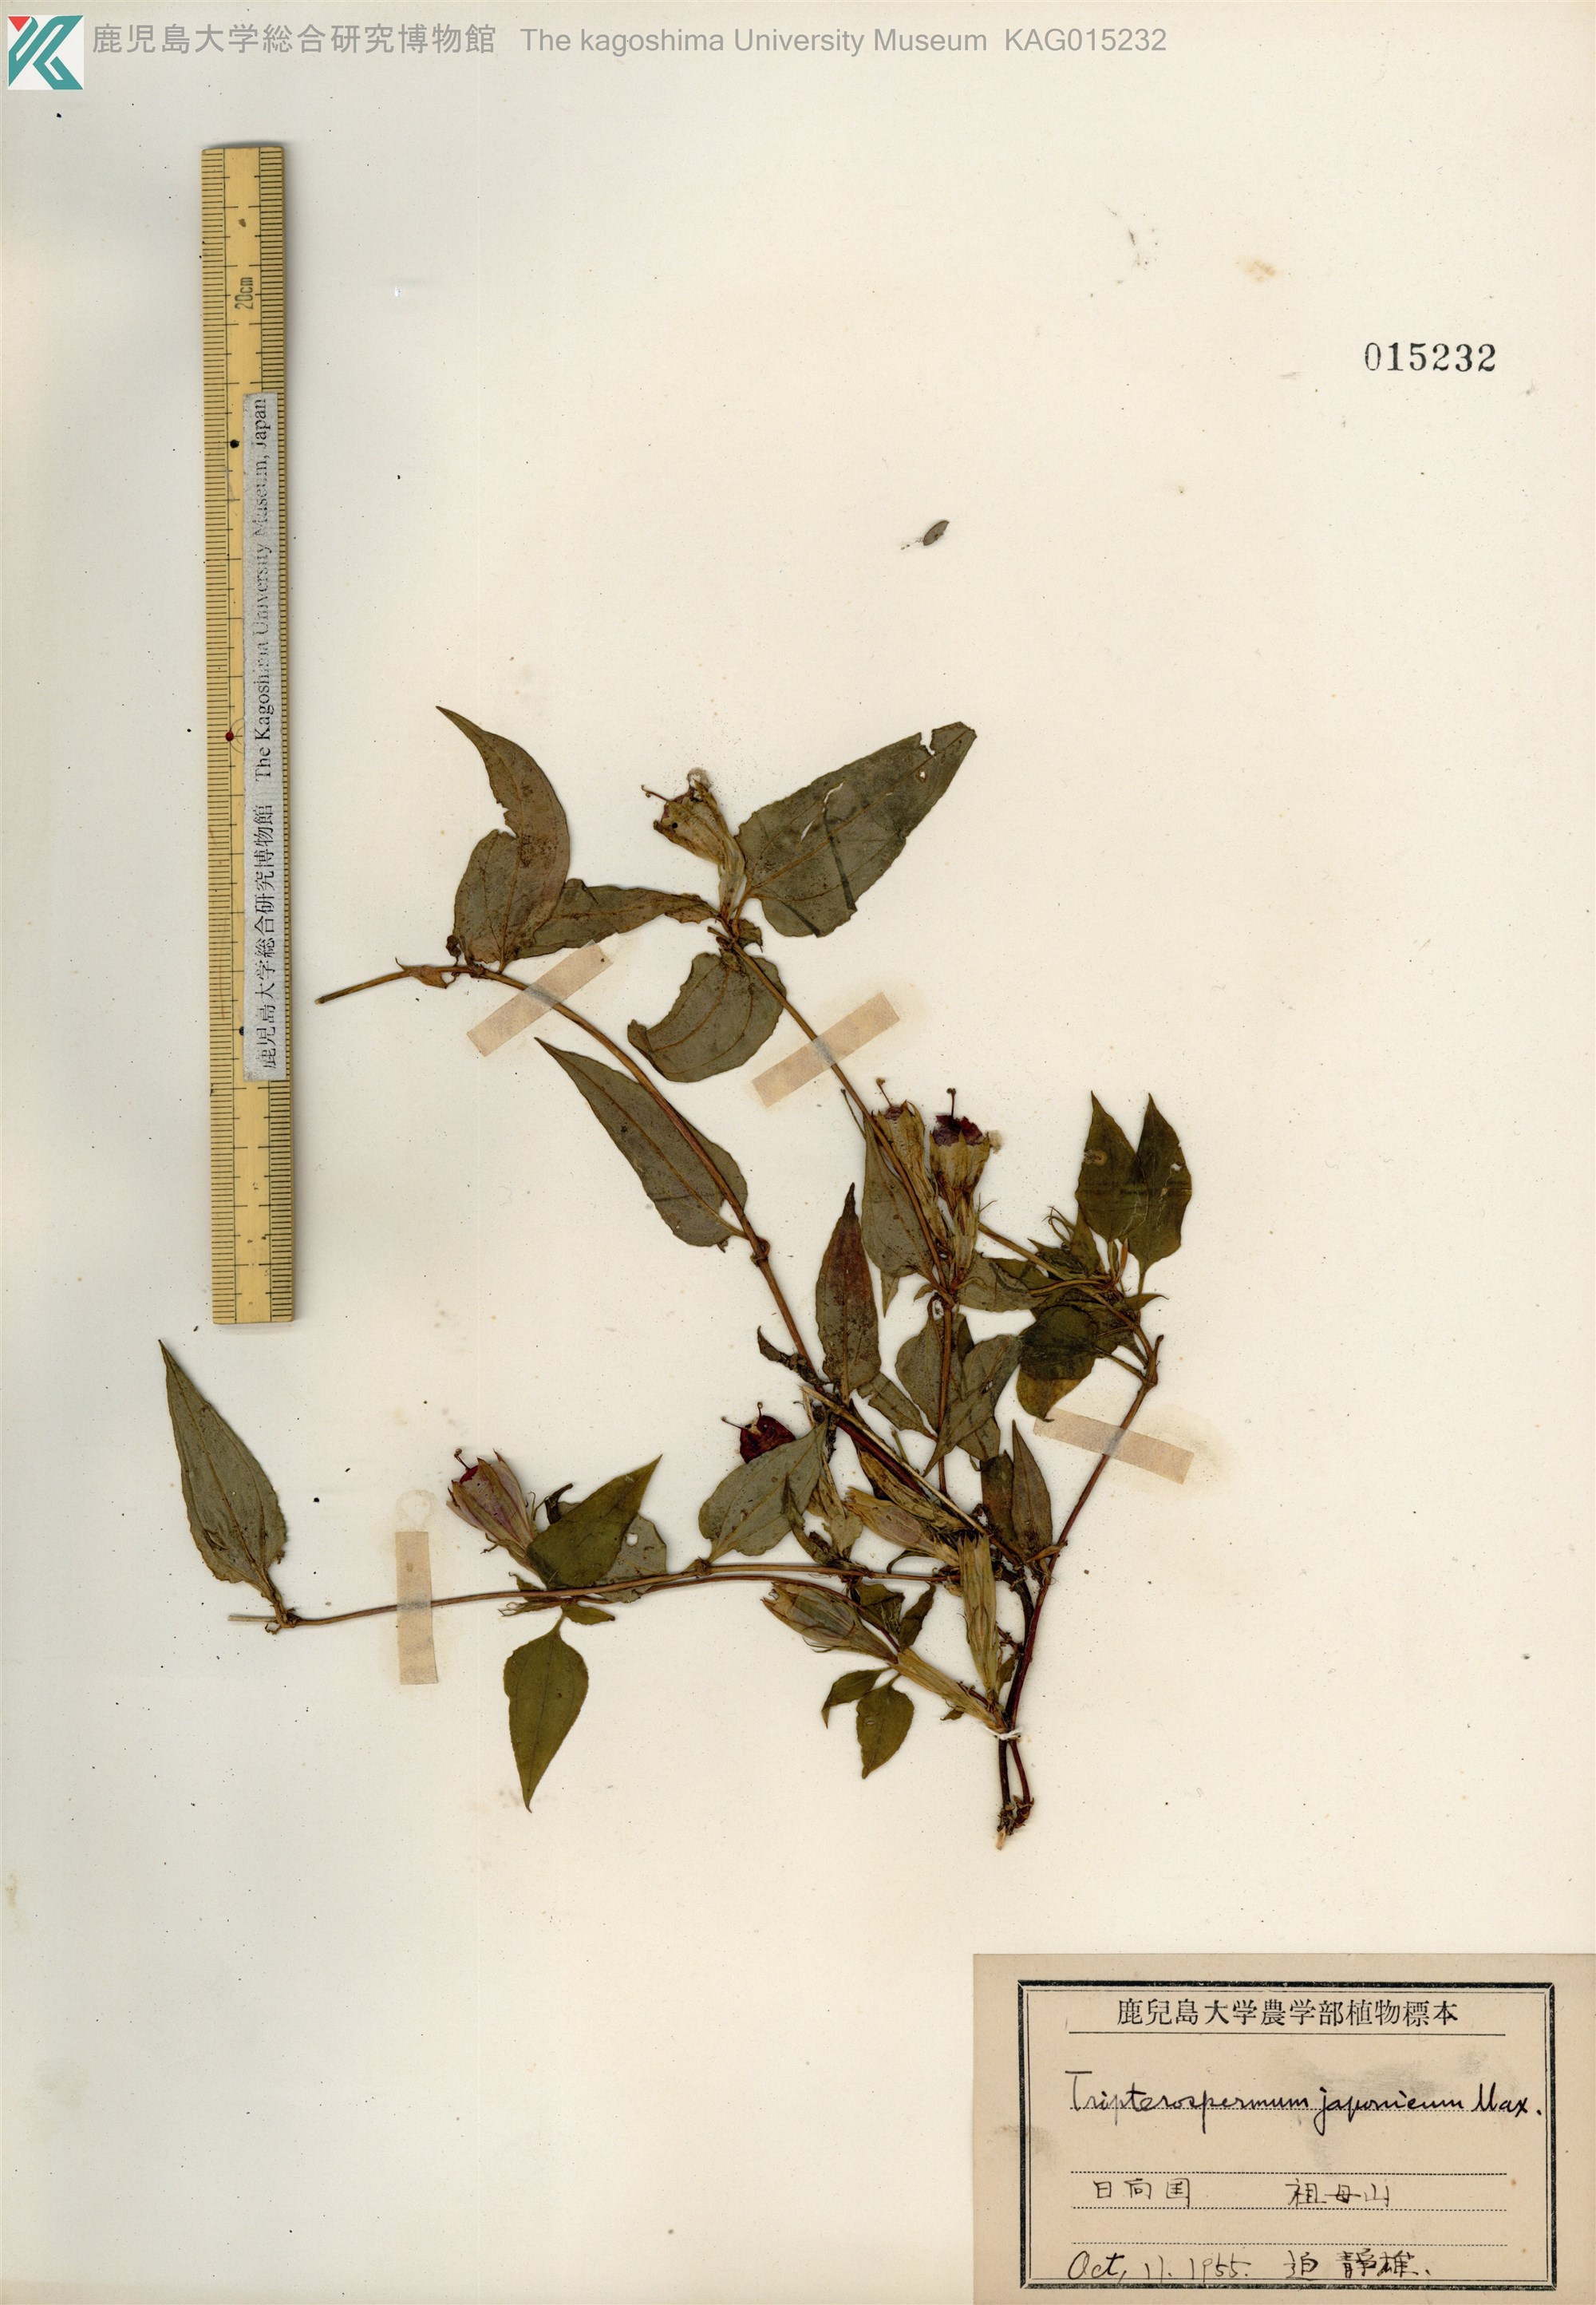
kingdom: Plantae
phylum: Tracheophyta
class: Magnoliopsida
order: Gentianales
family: Gentianaceae
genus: Tripterospermum
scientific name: Tripterospermum trinervium
